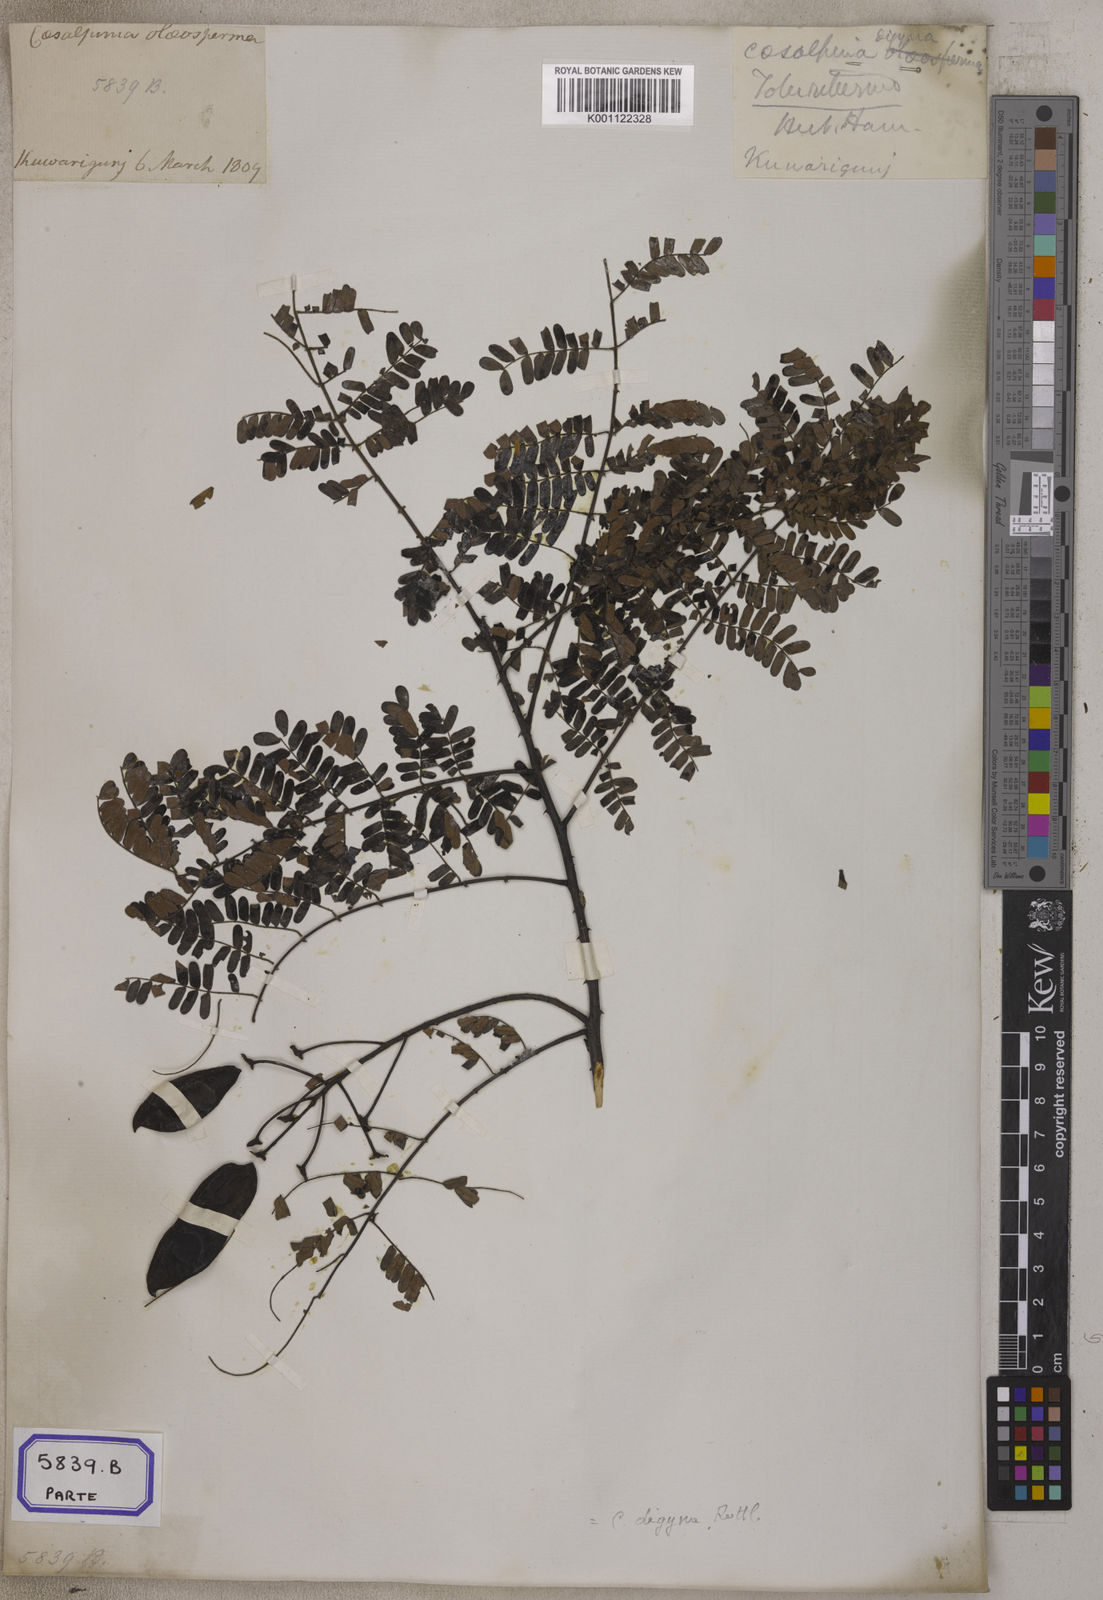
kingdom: Plantae
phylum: Tracheophyta
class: Magnoliopsida
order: Fabales
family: Fabaceae
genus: Moullava
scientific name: Moullava digyna
